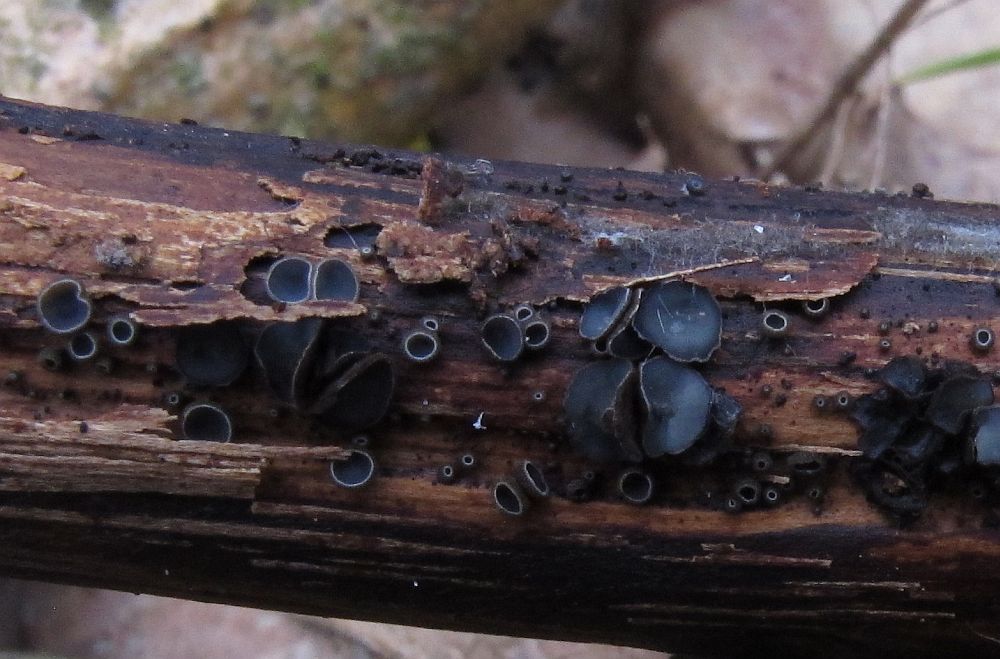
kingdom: Fungi
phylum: Ascomycota
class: Leotiomycetes
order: Helotiales
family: Mollisiaceae
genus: Mollisia
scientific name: Mollisia ligni
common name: ved-gråskive
